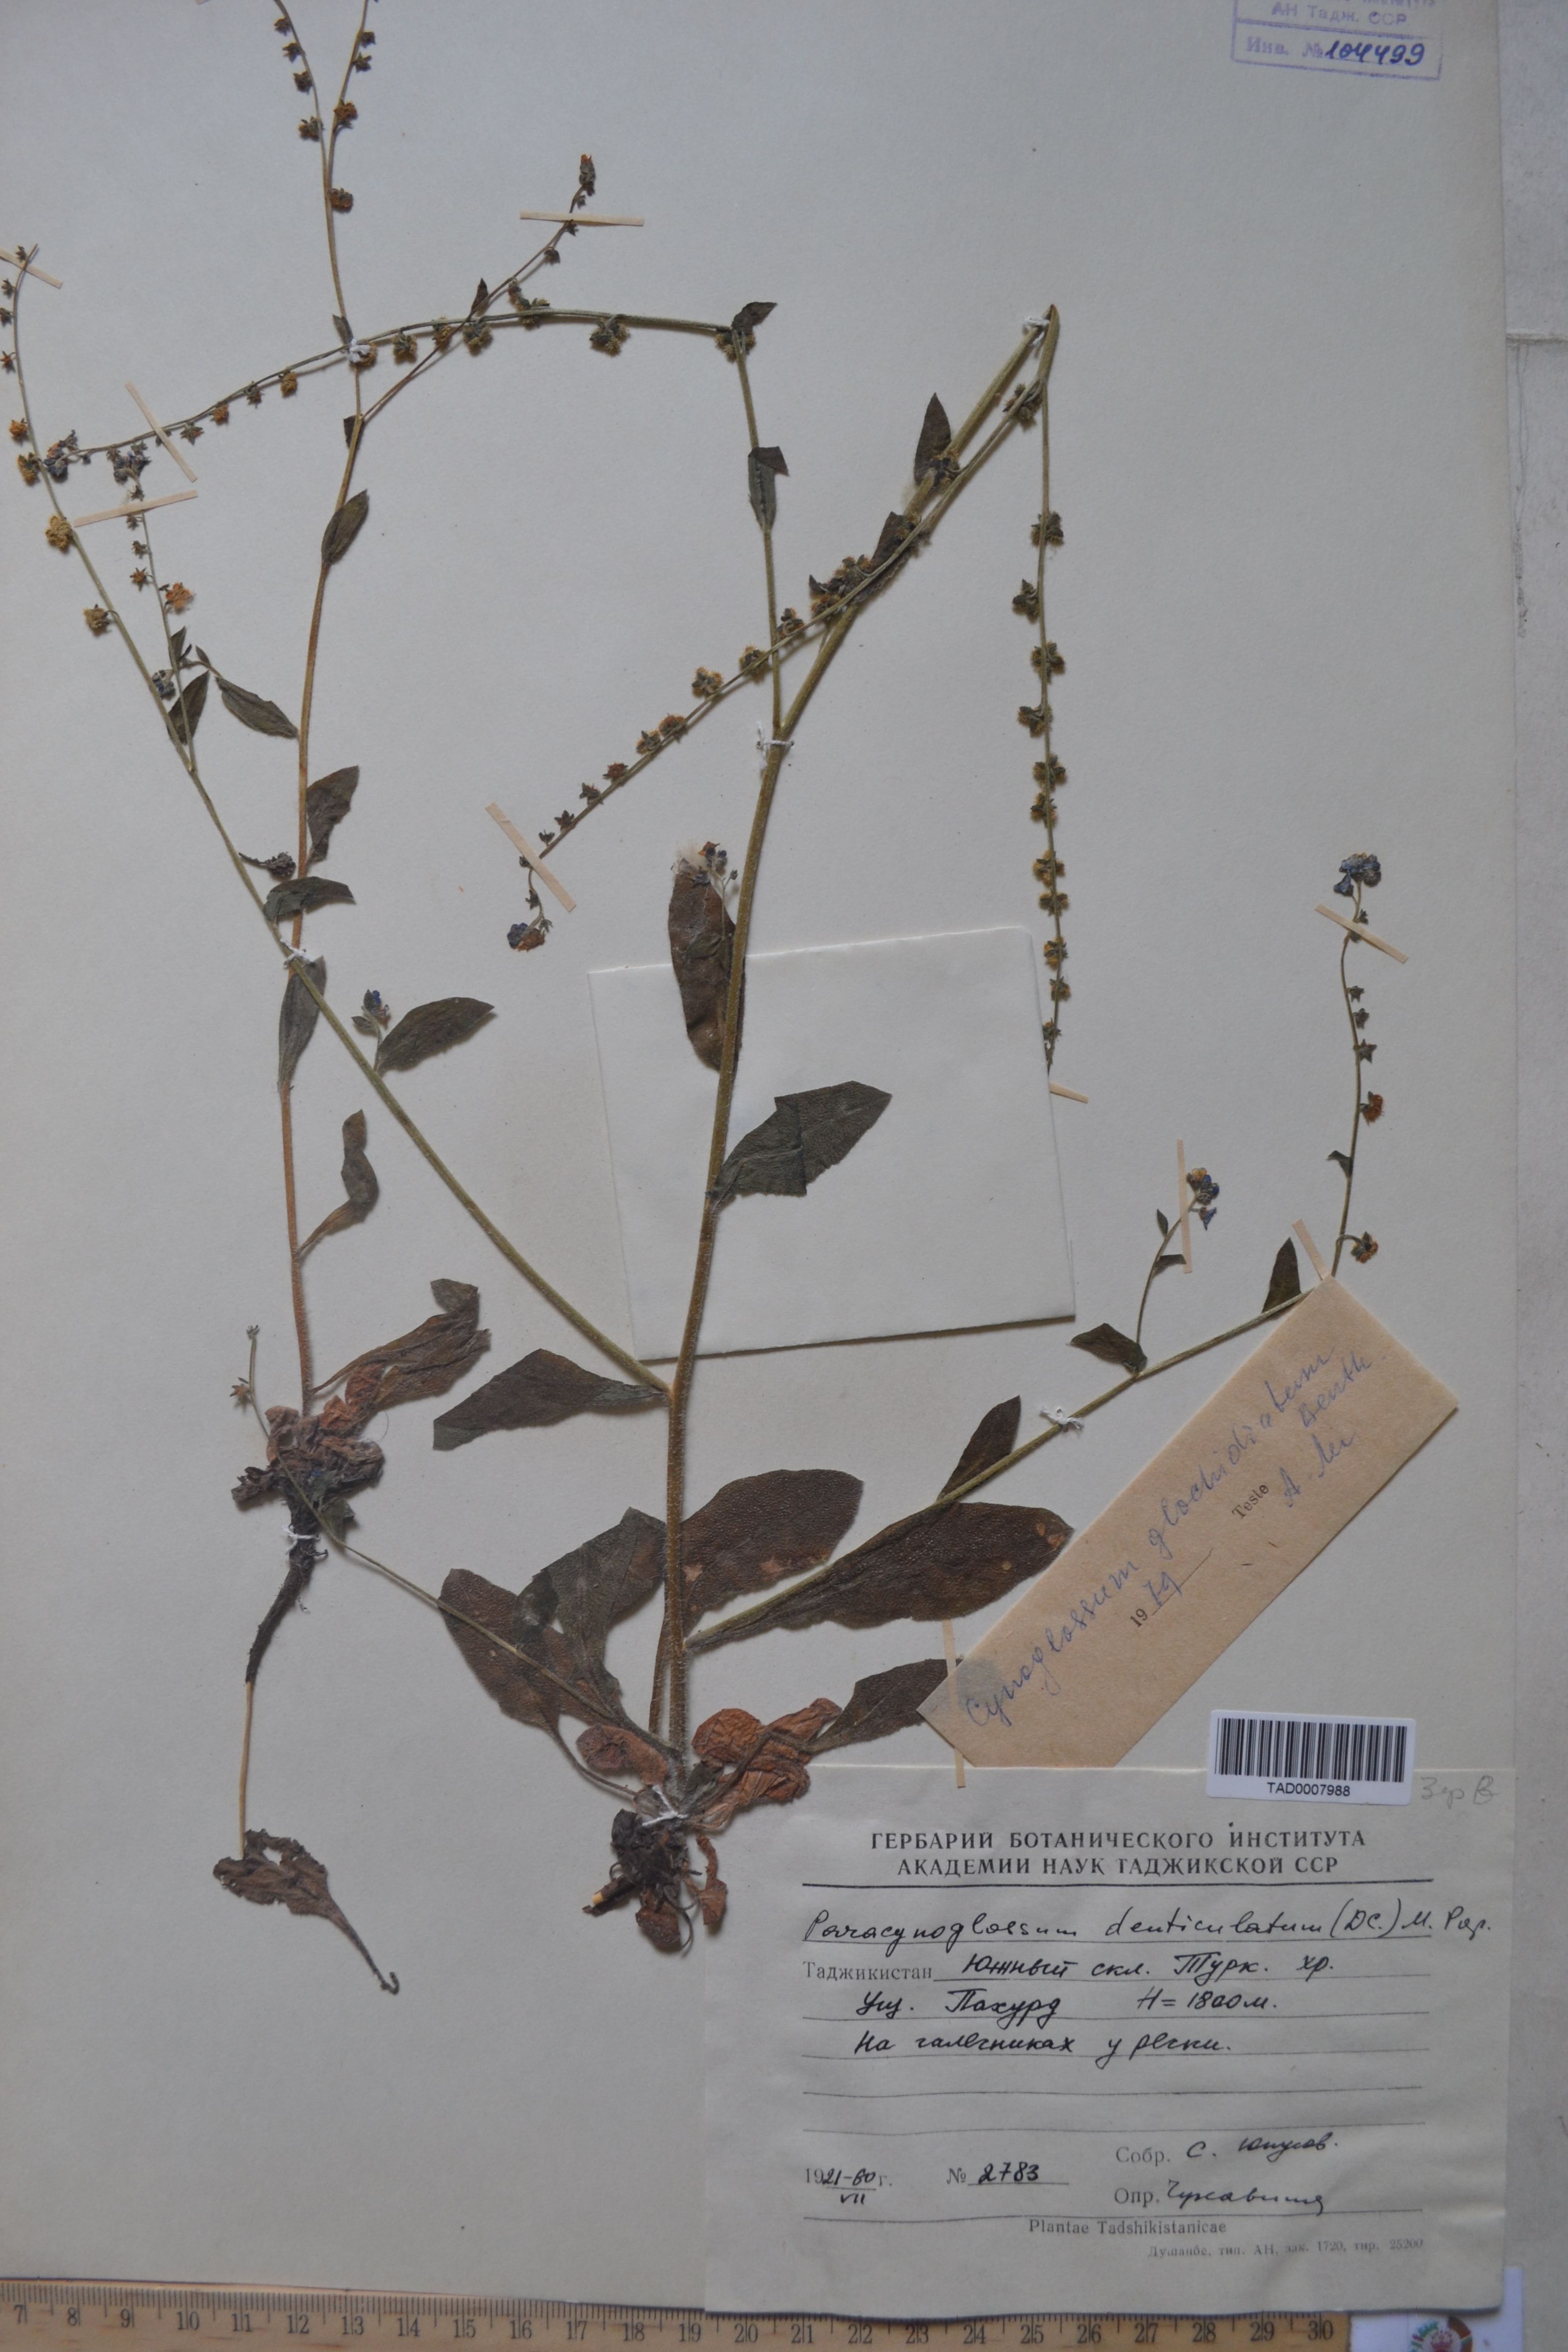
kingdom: Plantae
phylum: Tracheophyta
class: Magnoliopsida
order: Boraginales
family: Boraginaceae
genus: Paracynoglossum
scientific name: Paracynoglossum glochidiatum
